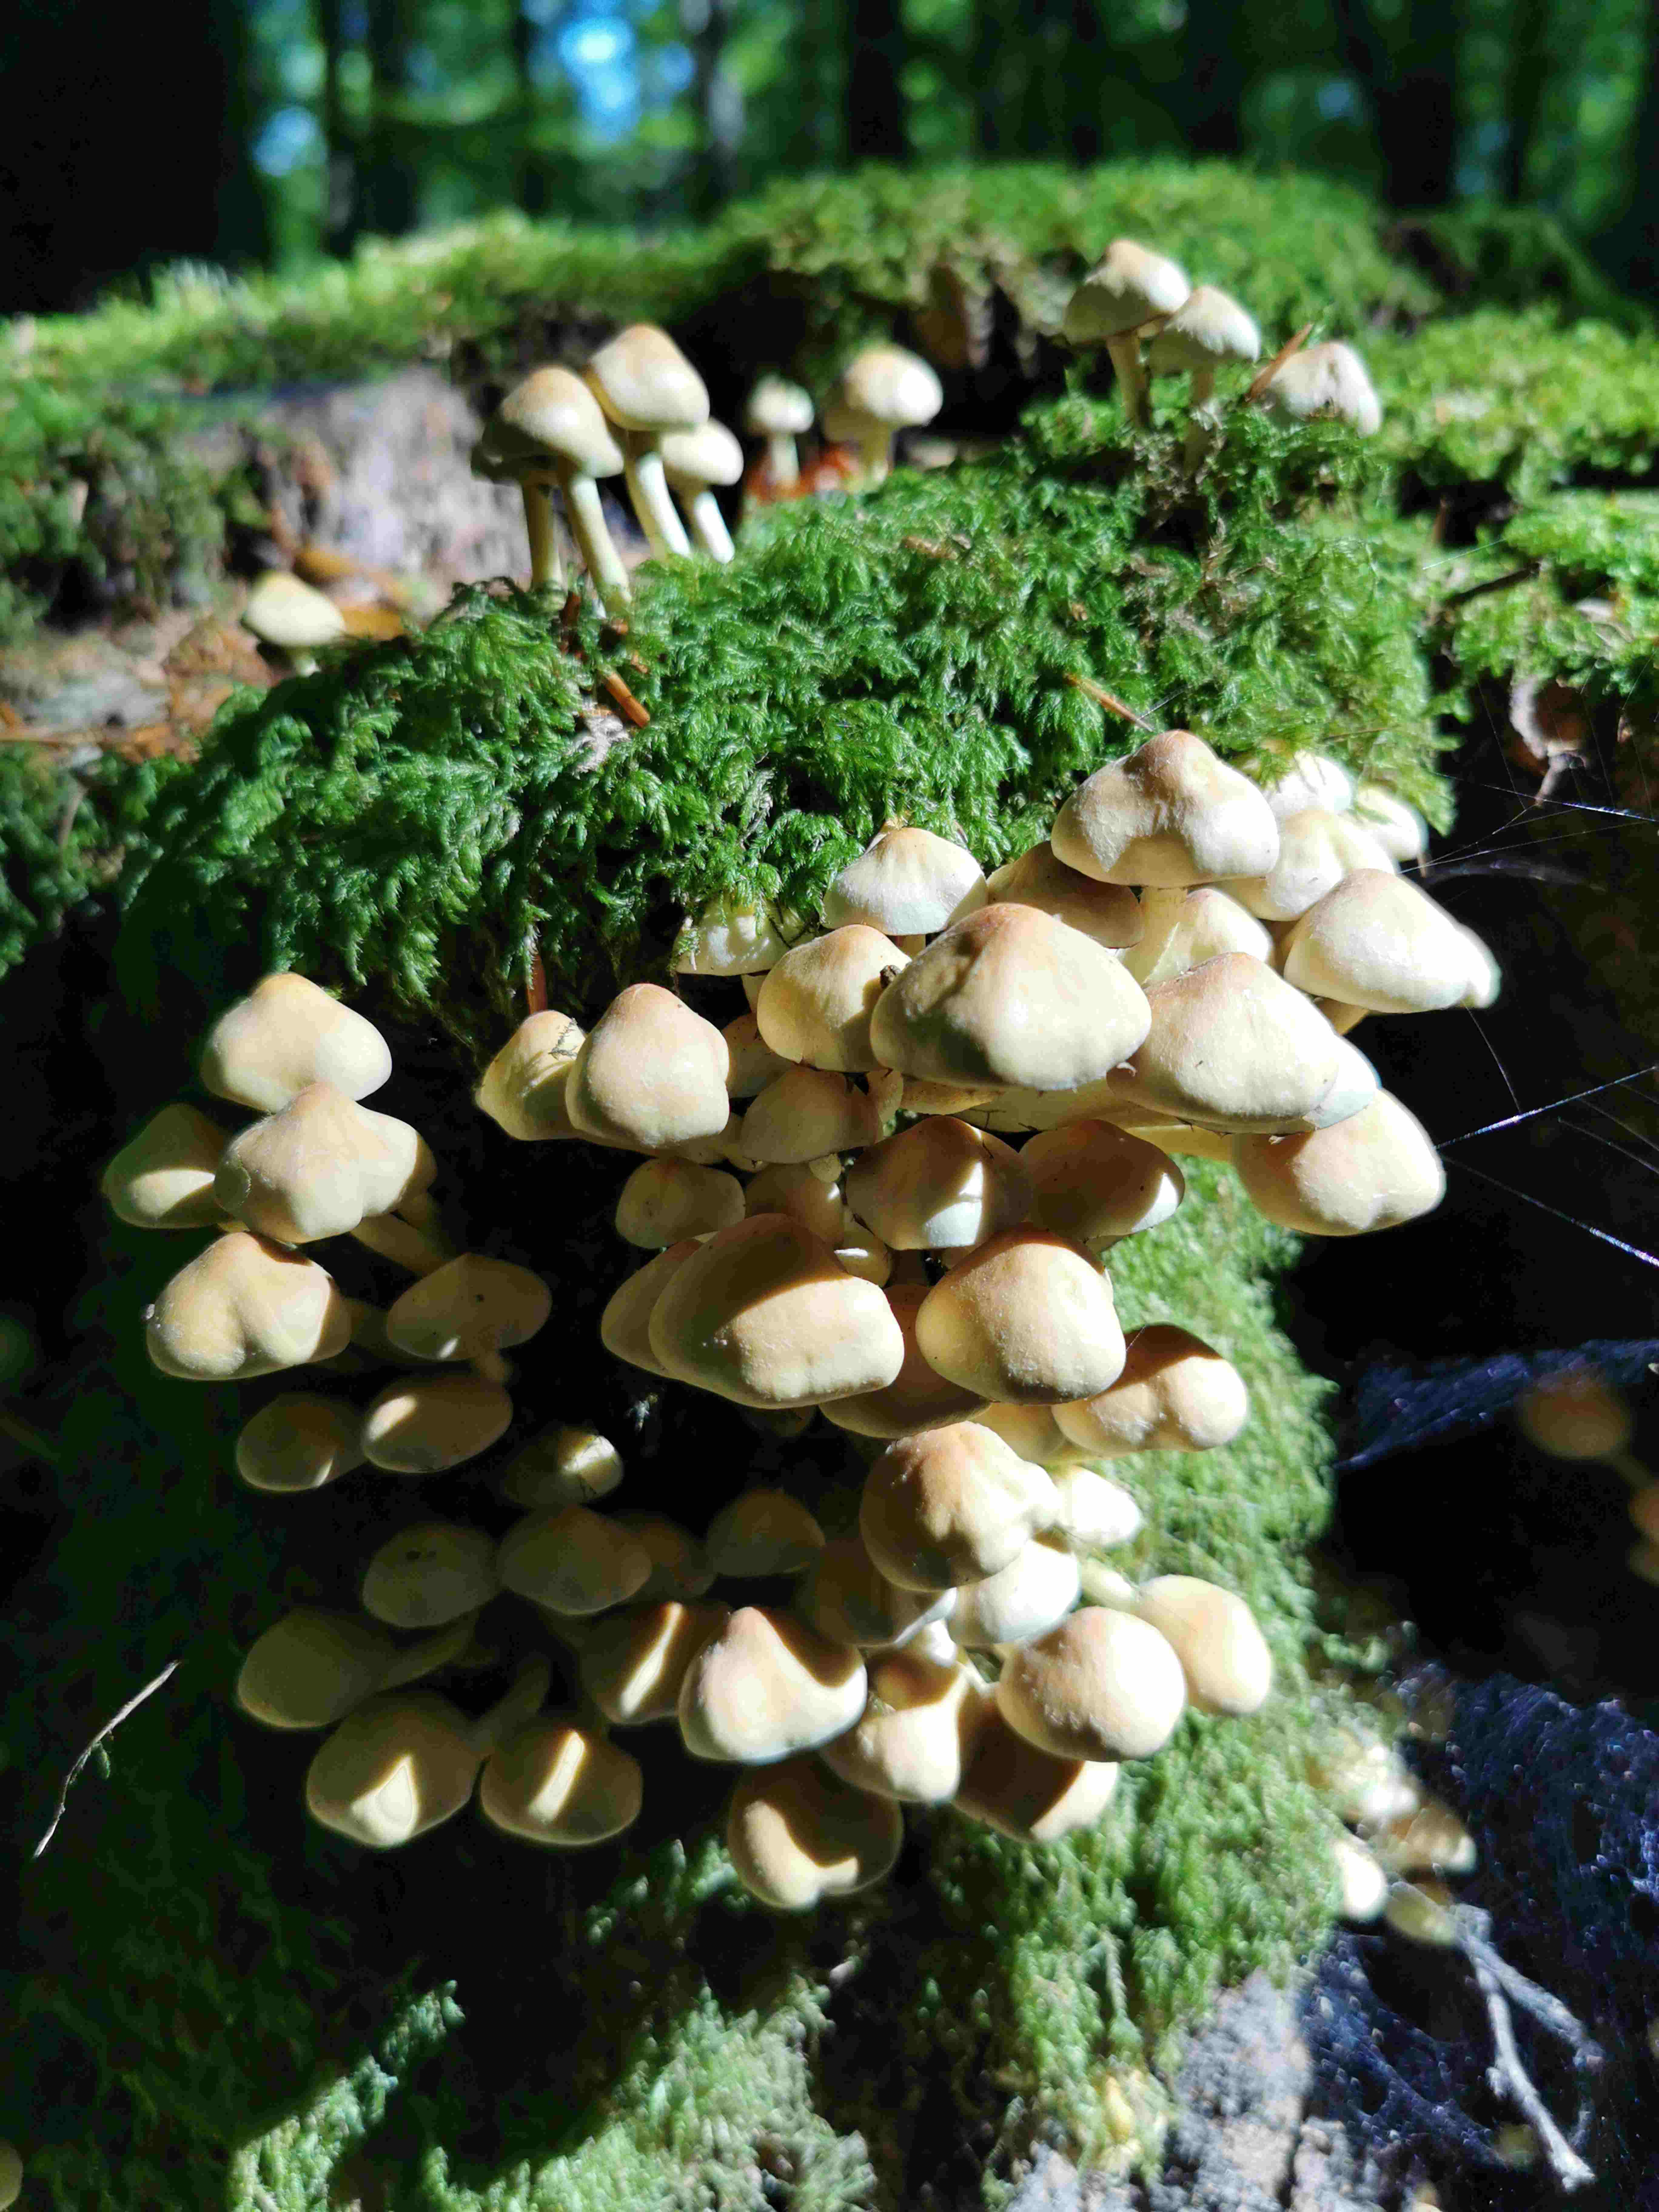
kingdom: Fungi
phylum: Basidiomycota
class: Agaricomycetes
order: Agaricales
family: Strophariaceae
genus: Hypholoma
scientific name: Hypholoma fasciculare
